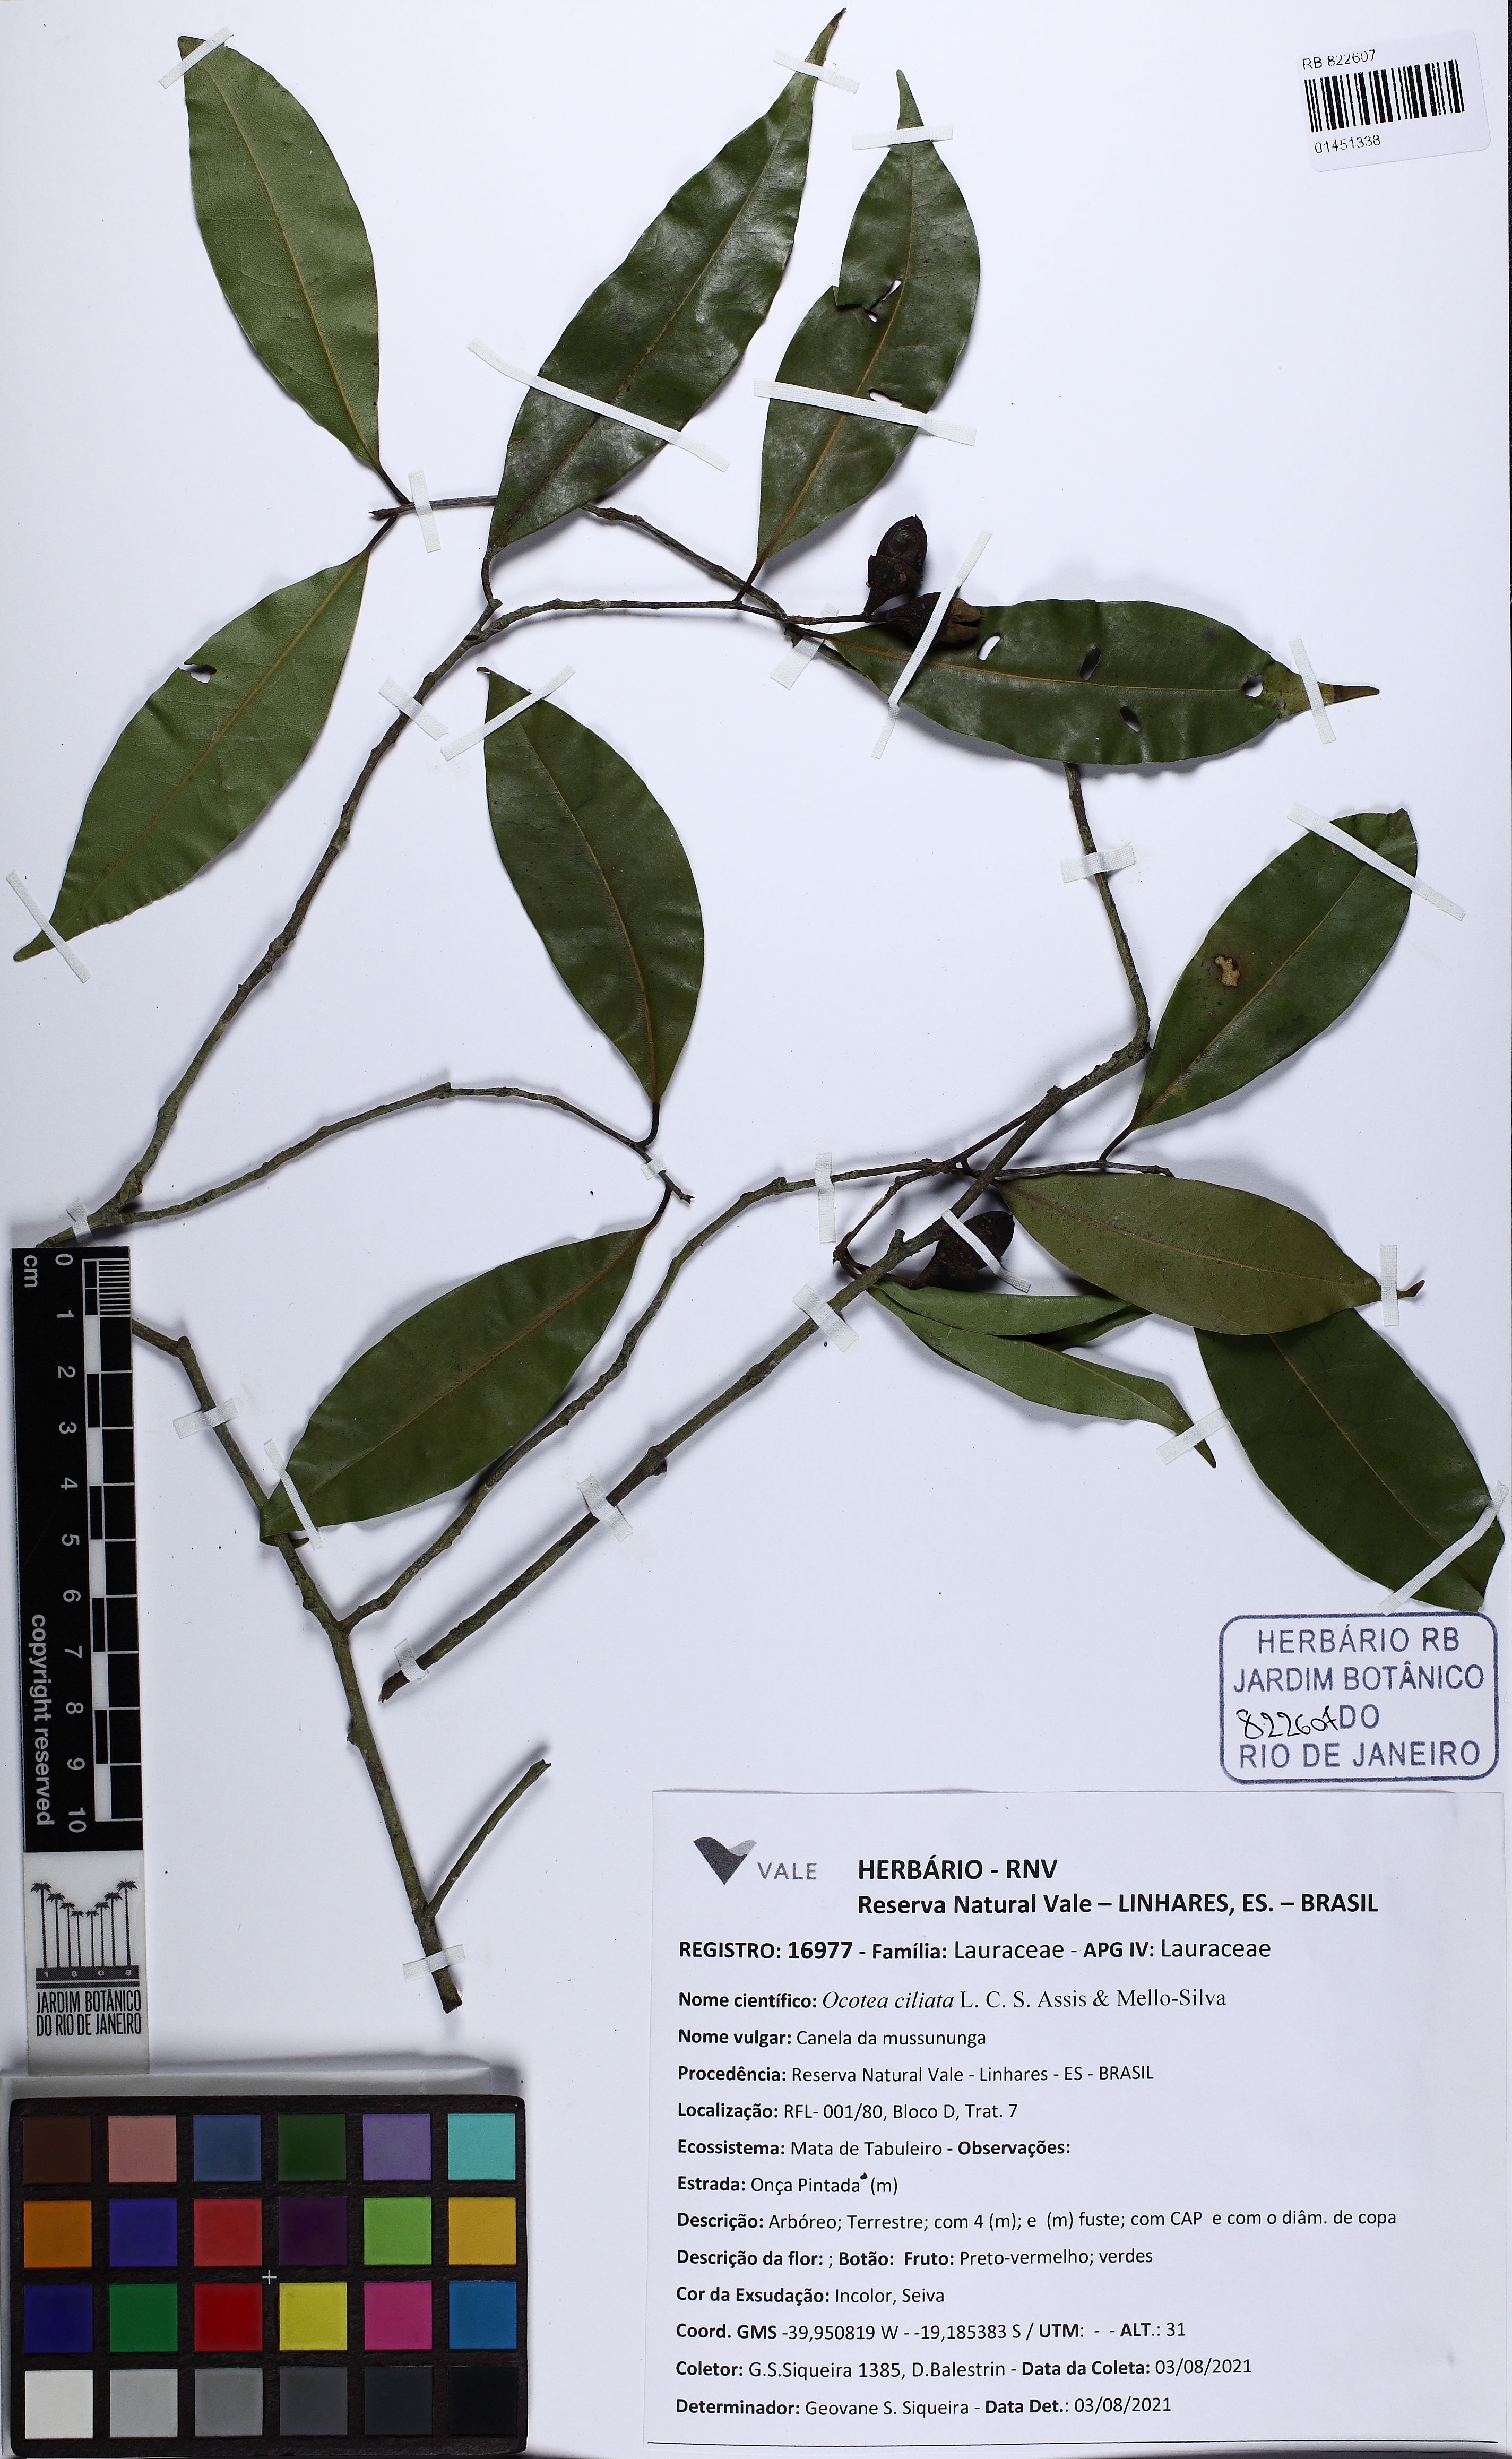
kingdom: Plantae
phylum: Tracheophyta
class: Magnoliopsida
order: Laurales
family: Lauraceae
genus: Ocotea
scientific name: Ocotea ciliata
